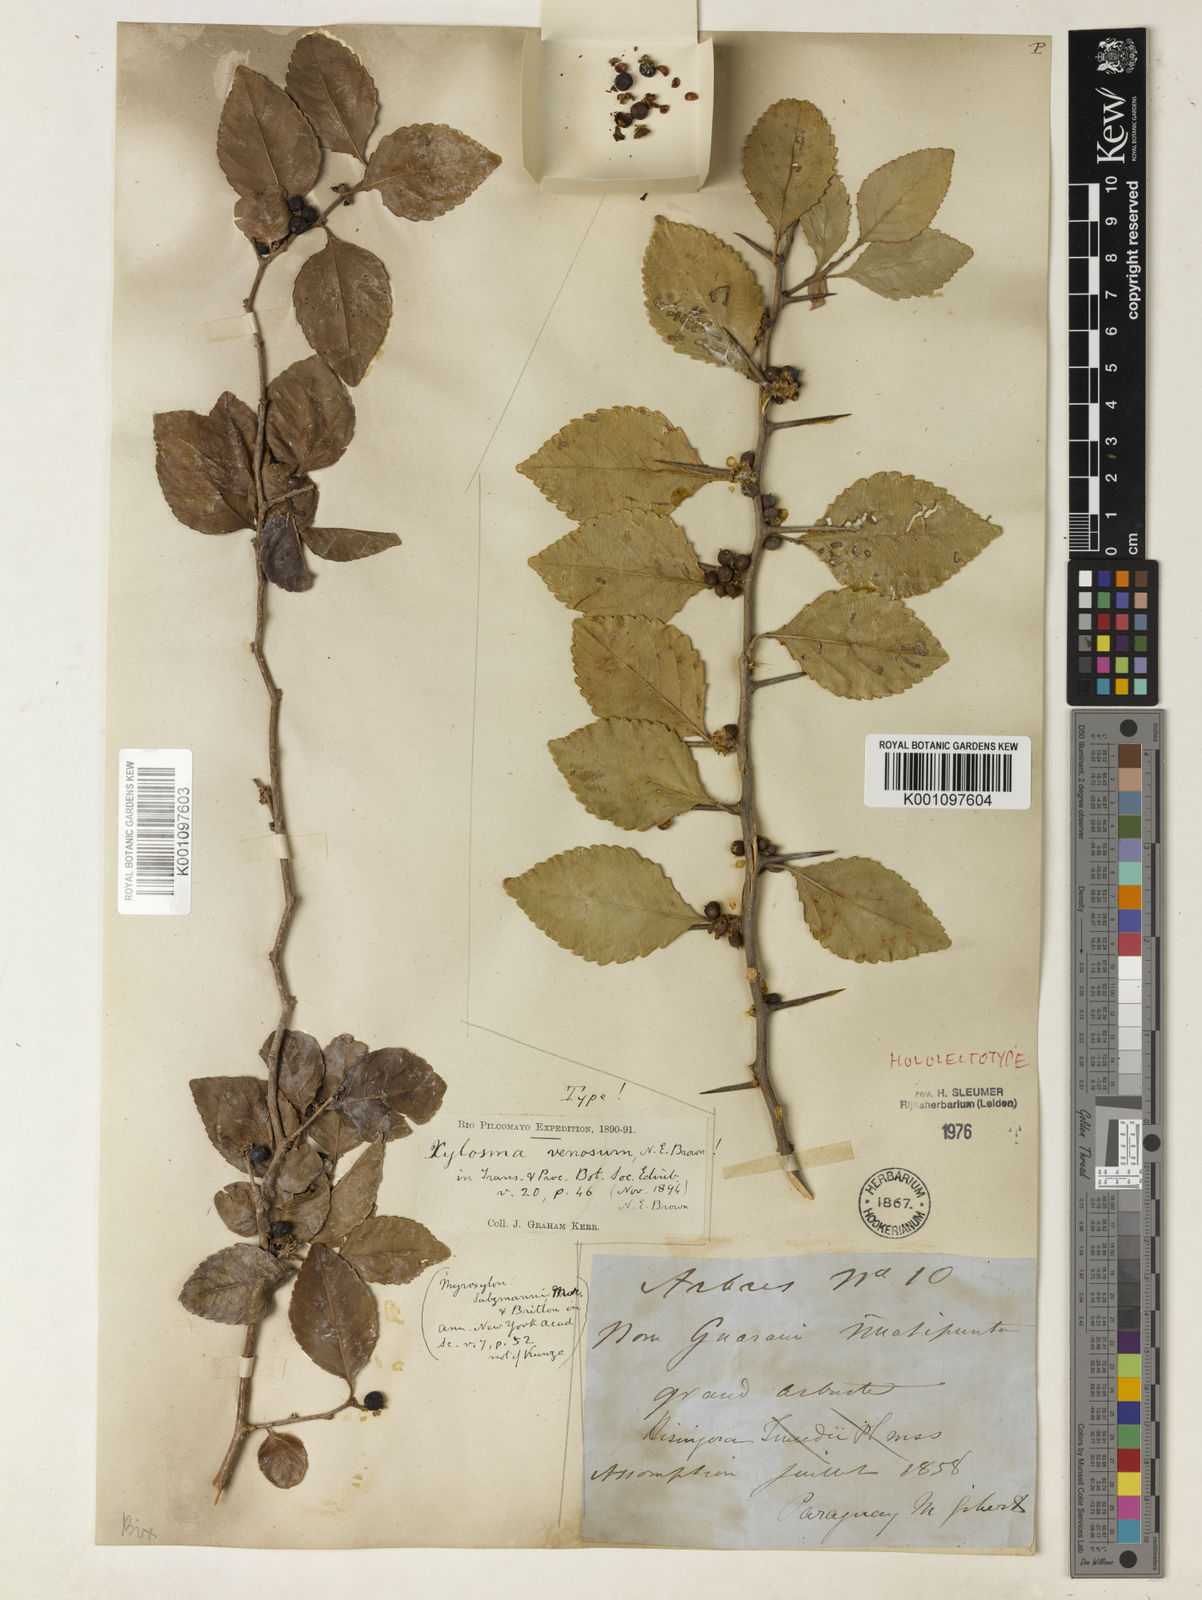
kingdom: Plantae
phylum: Tracheophyta
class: Magnoliopsida
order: Malpighiales
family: Salicaceae
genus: Xylosma
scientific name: Xylosma
